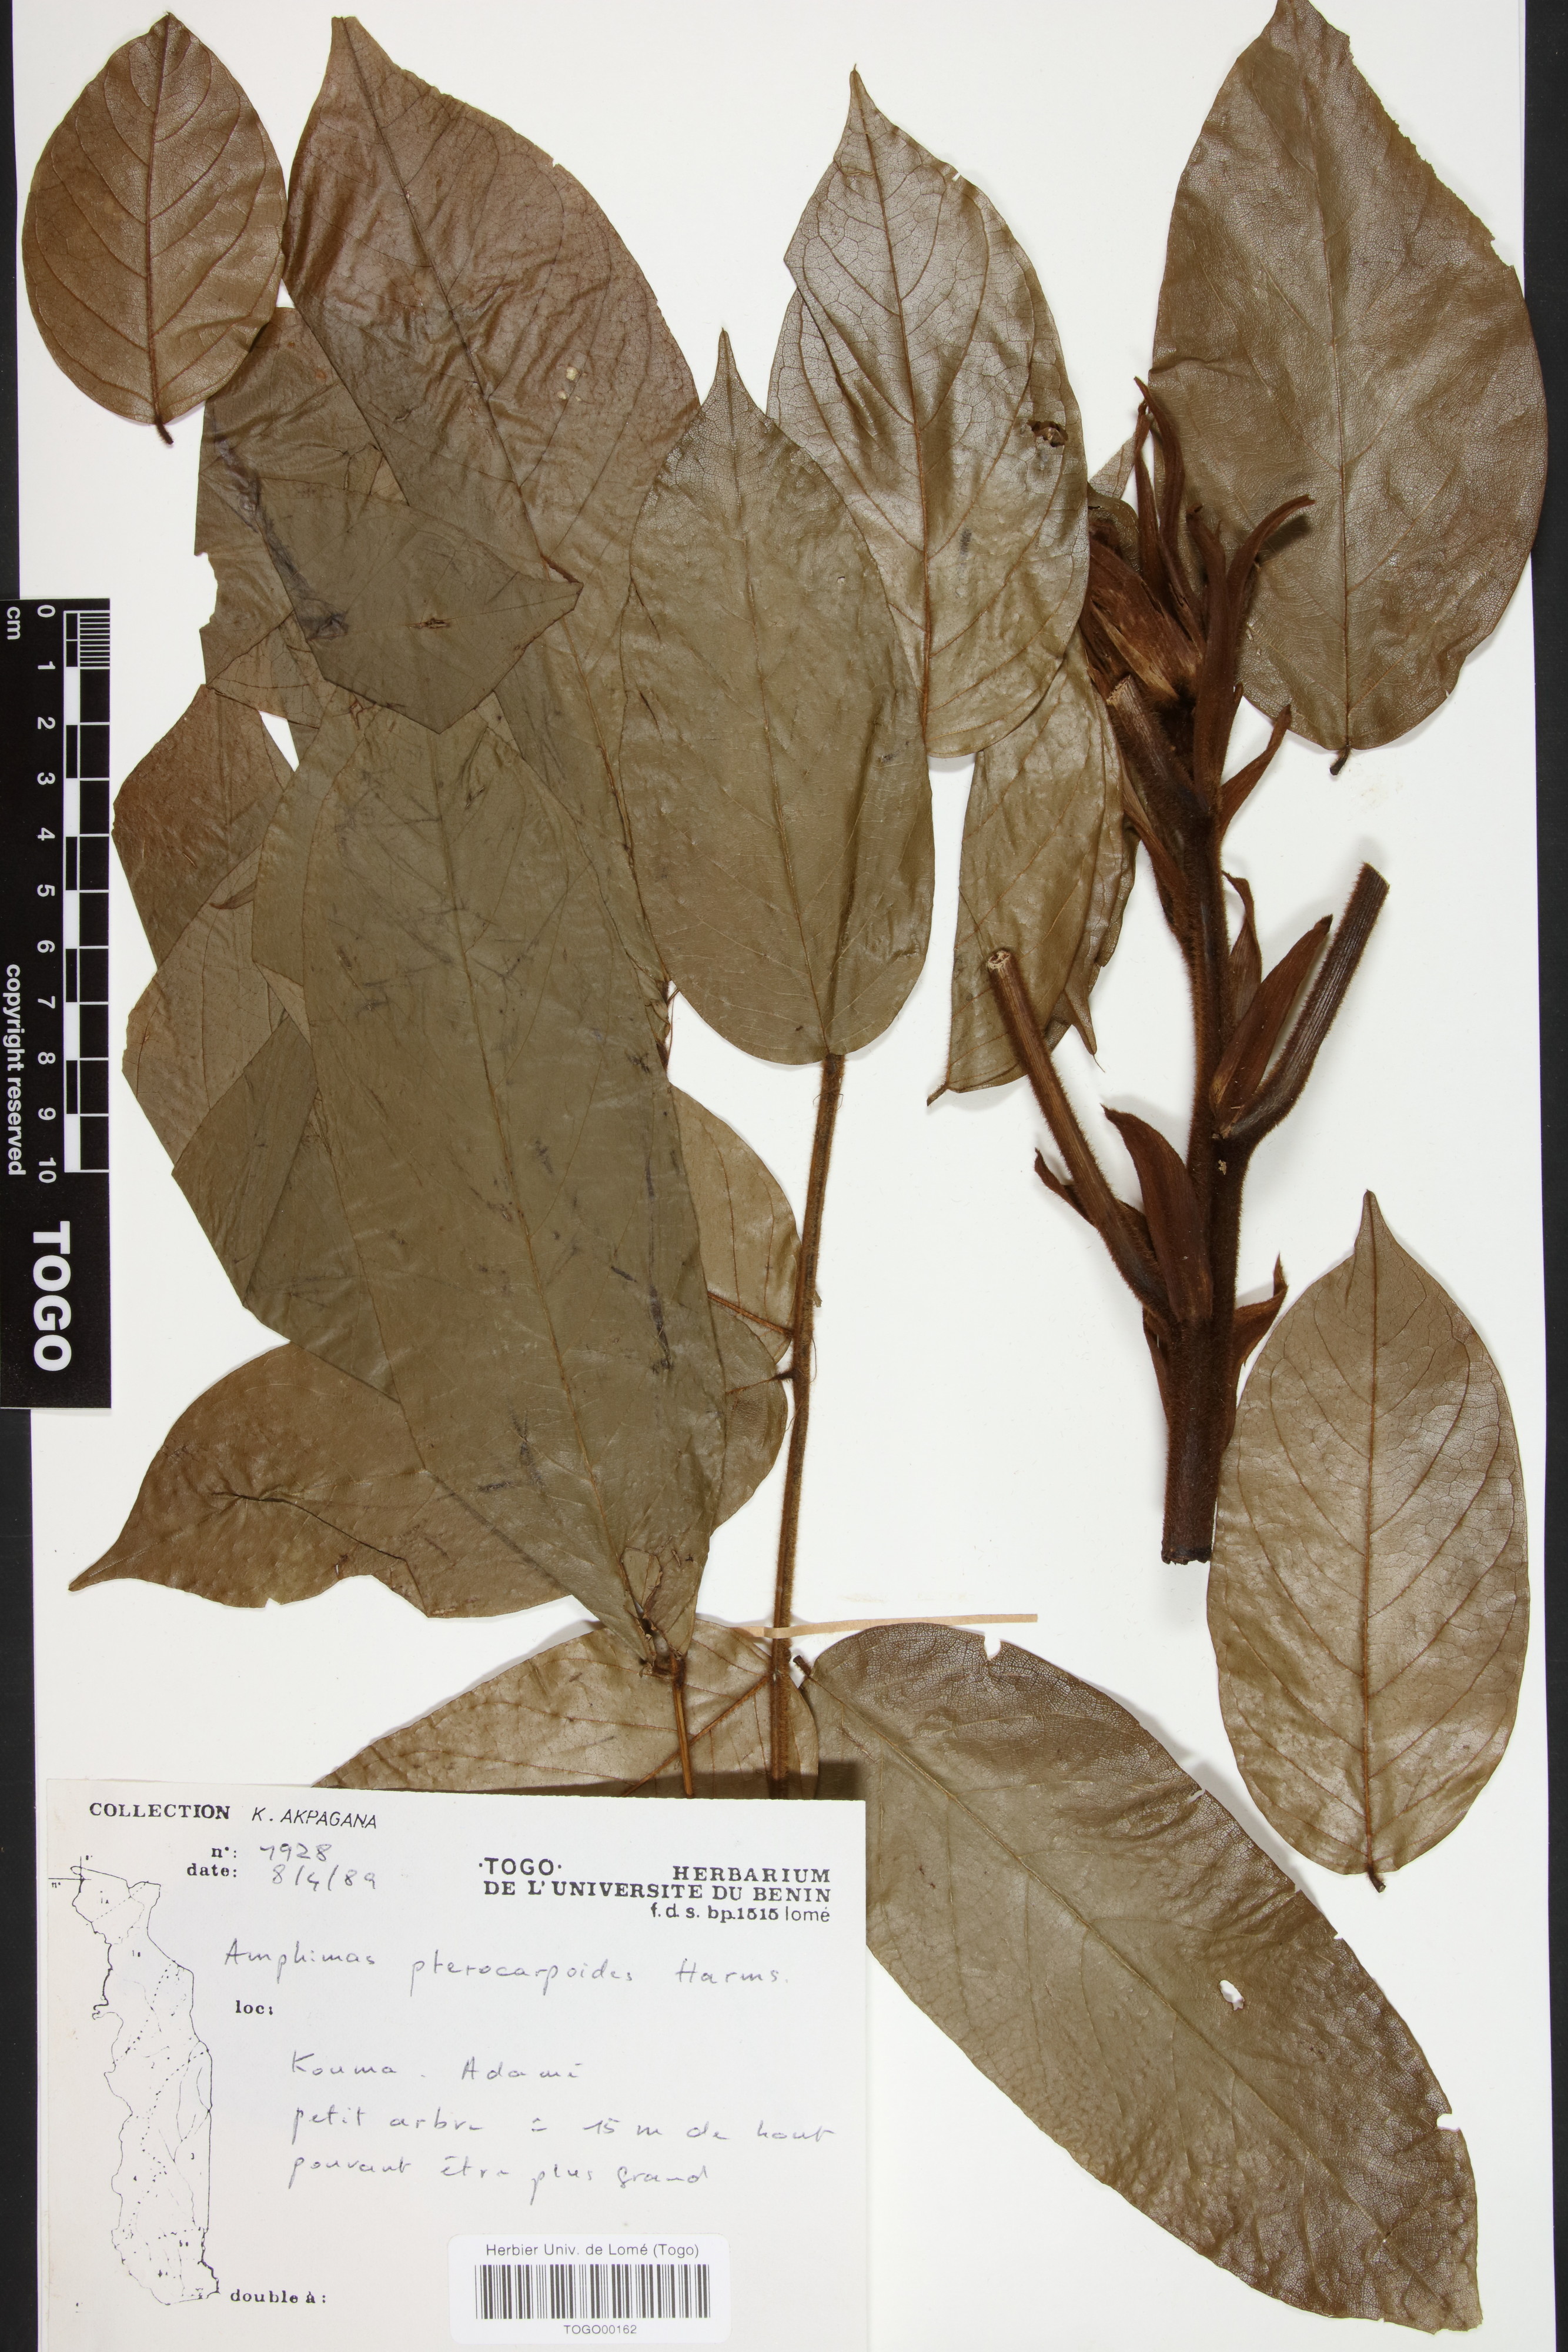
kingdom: Plantae
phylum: Tracheophyta
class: Magnoliopsida
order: Fabales
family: Fabaceae
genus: Amphimas
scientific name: Amphimas pterocarpoides
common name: Bokanga
